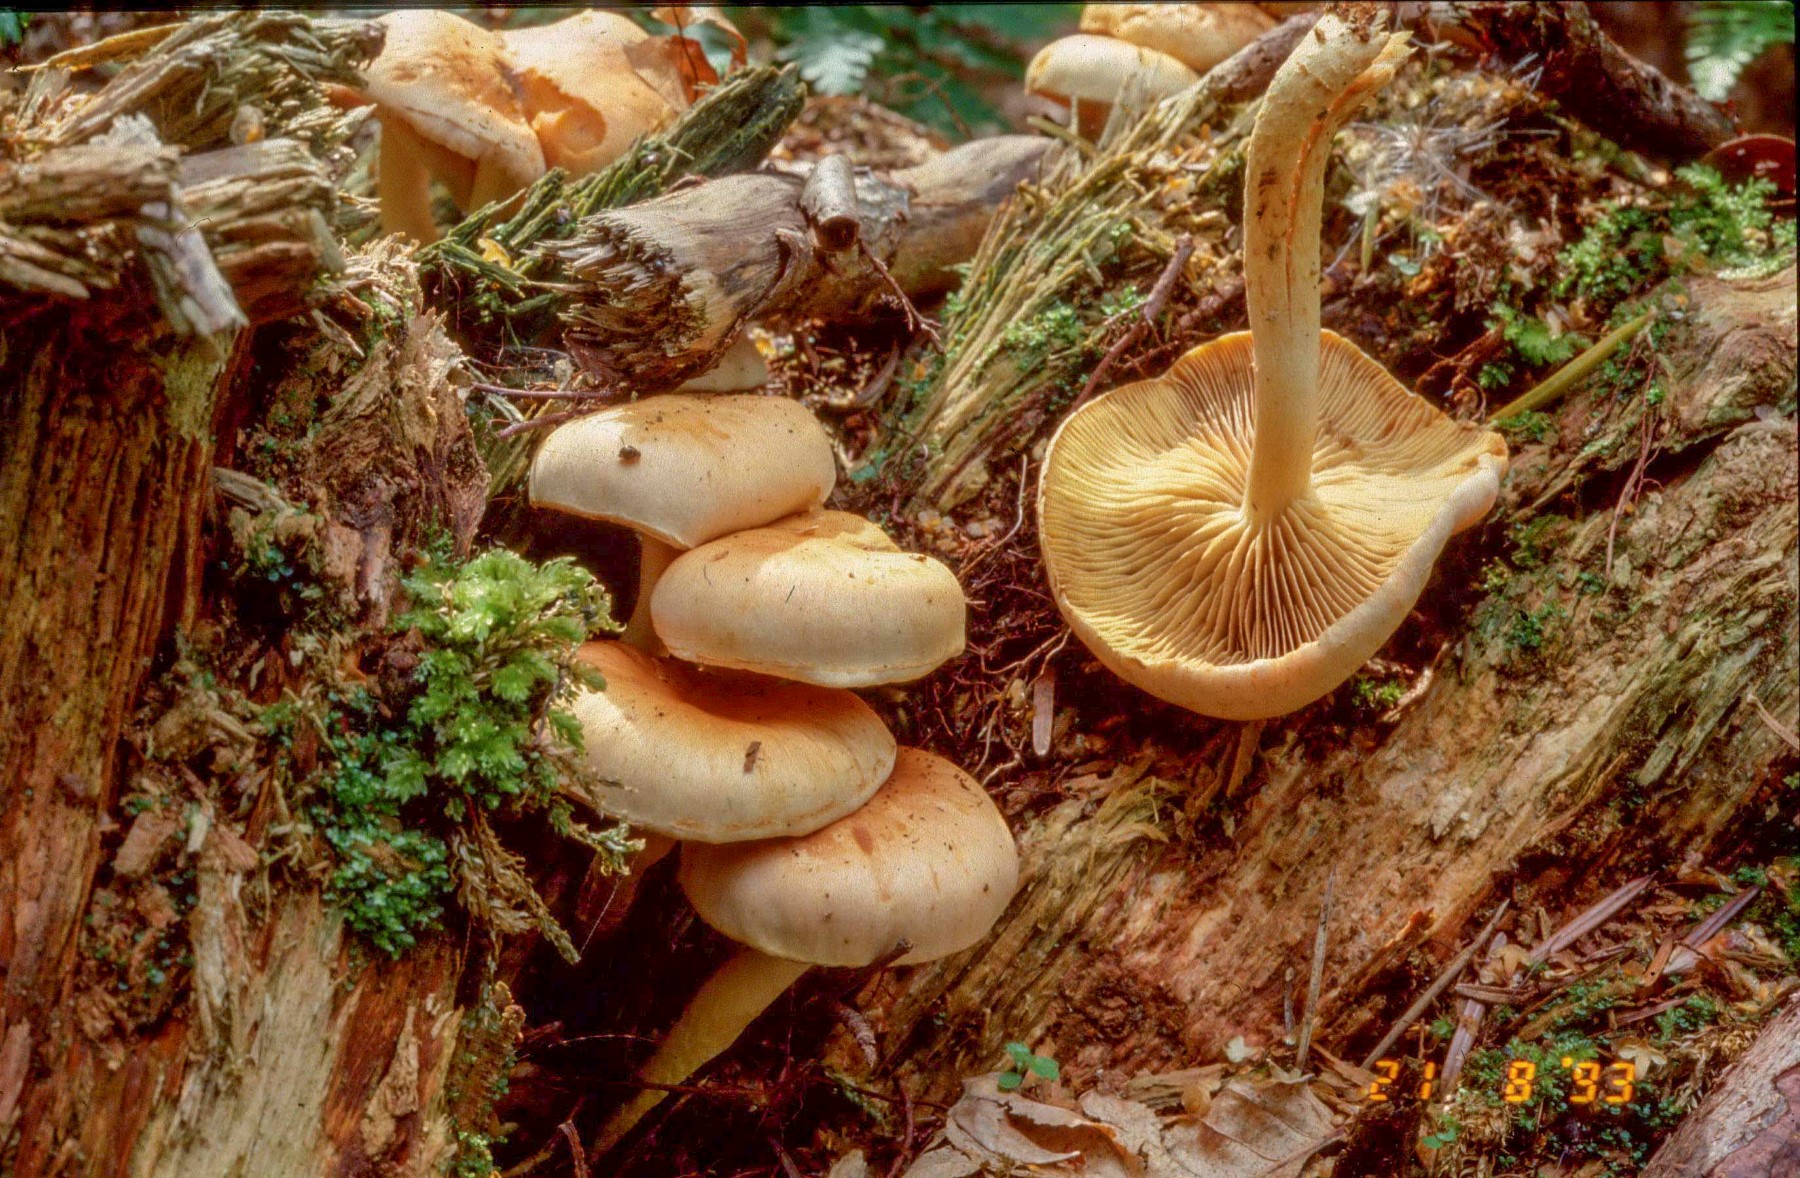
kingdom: Fungi
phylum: Basidiomycota
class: Agaricomycetes
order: Agaricales
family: Strophariaceae
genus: Pyrrhulomyces
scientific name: Pyrrhulomyces astragalinus
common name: safran-skælhat
